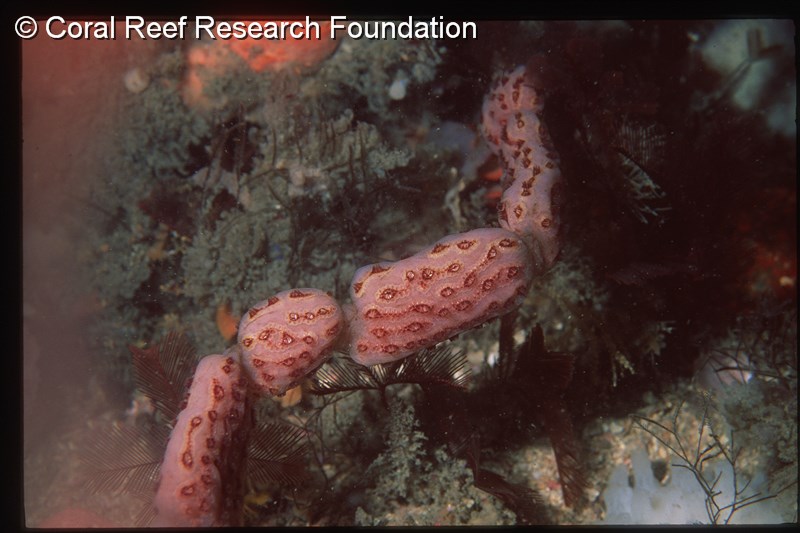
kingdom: Animalia
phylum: Chordata
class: Ascidiacea
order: Stolidobranchia
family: Styelidae
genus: Botryllus
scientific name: Botryllus closionis
